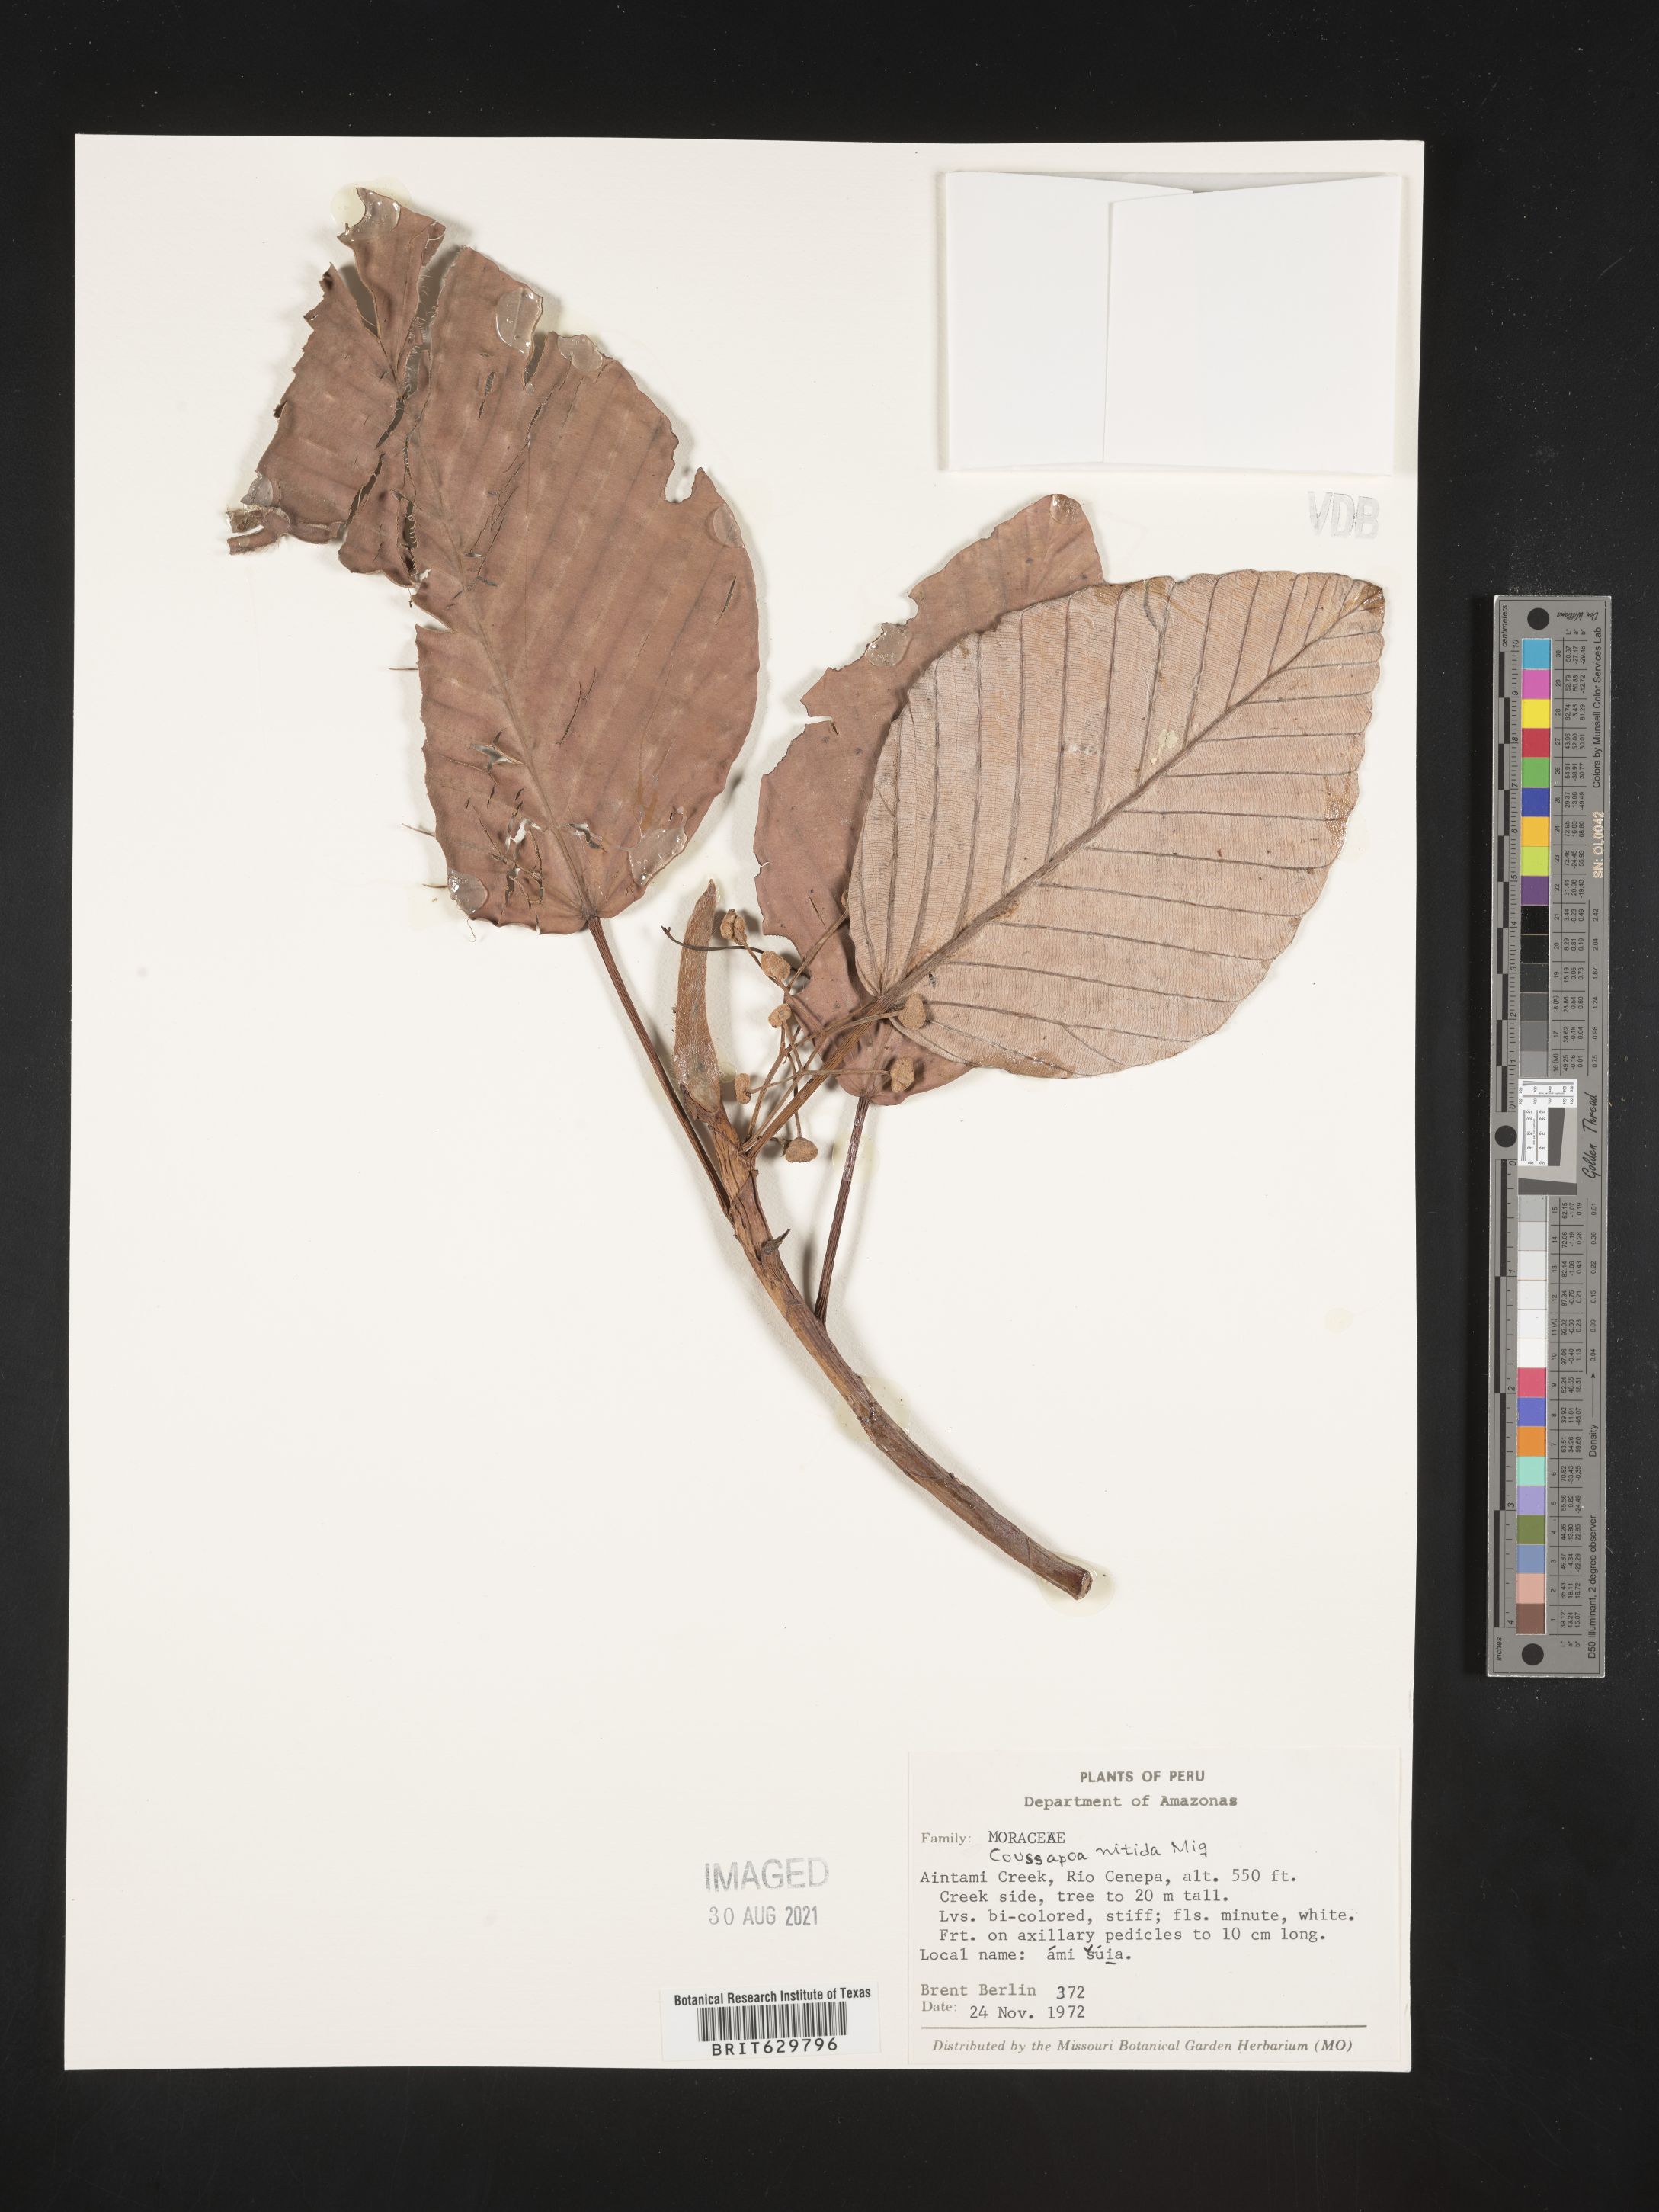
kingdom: Plantae
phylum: Tracheophyta
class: Magnoliopsida
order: Rosales
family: Urticaceae
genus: Coussapoa
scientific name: Coussapoa
